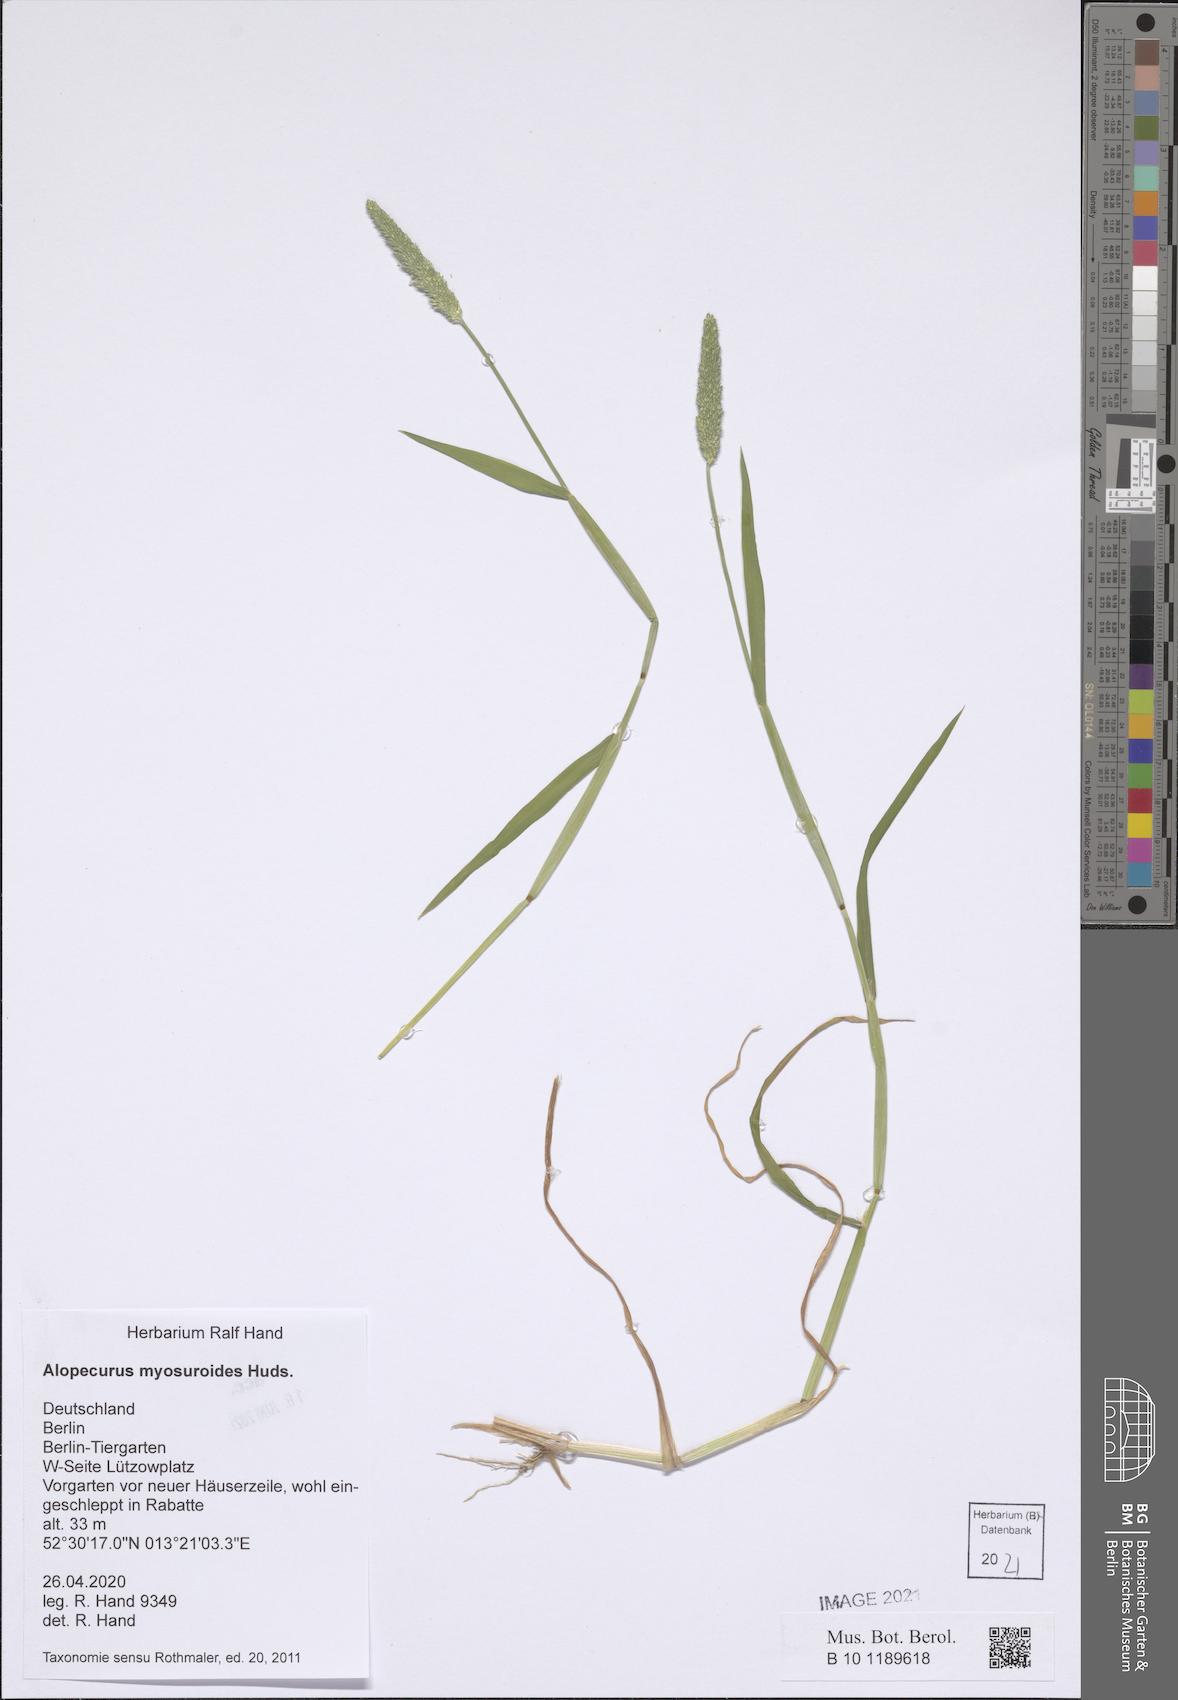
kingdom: Plantae
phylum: Tracheophyta
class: Liliopsida
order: Poales
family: Poaceae
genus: Alopecurus
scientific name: Alopecurus myosuroides
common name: Black-grass
